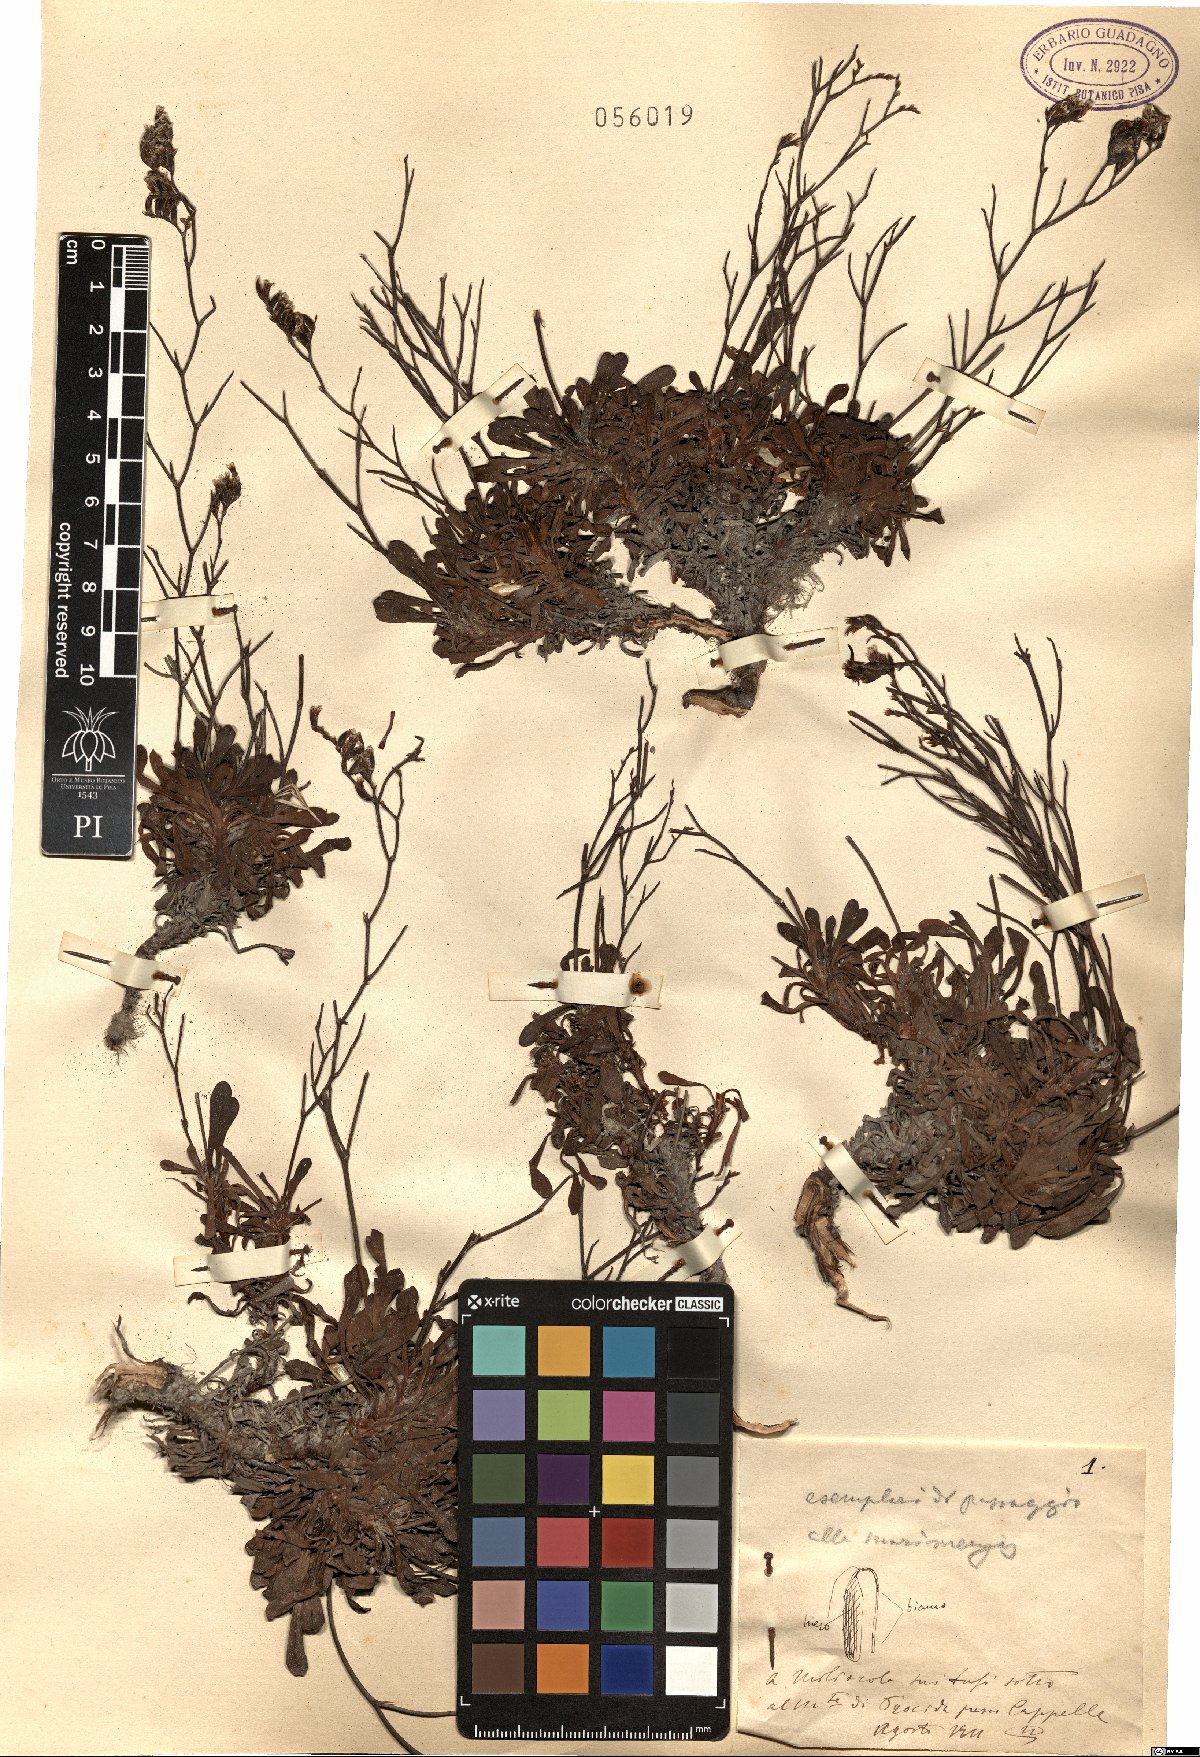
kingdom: Plantae
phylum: Tracheophyta
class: Magnoliopsida
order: Caryophyllales
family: Plumbaginaceae
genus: Armeria
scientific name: Armeria
